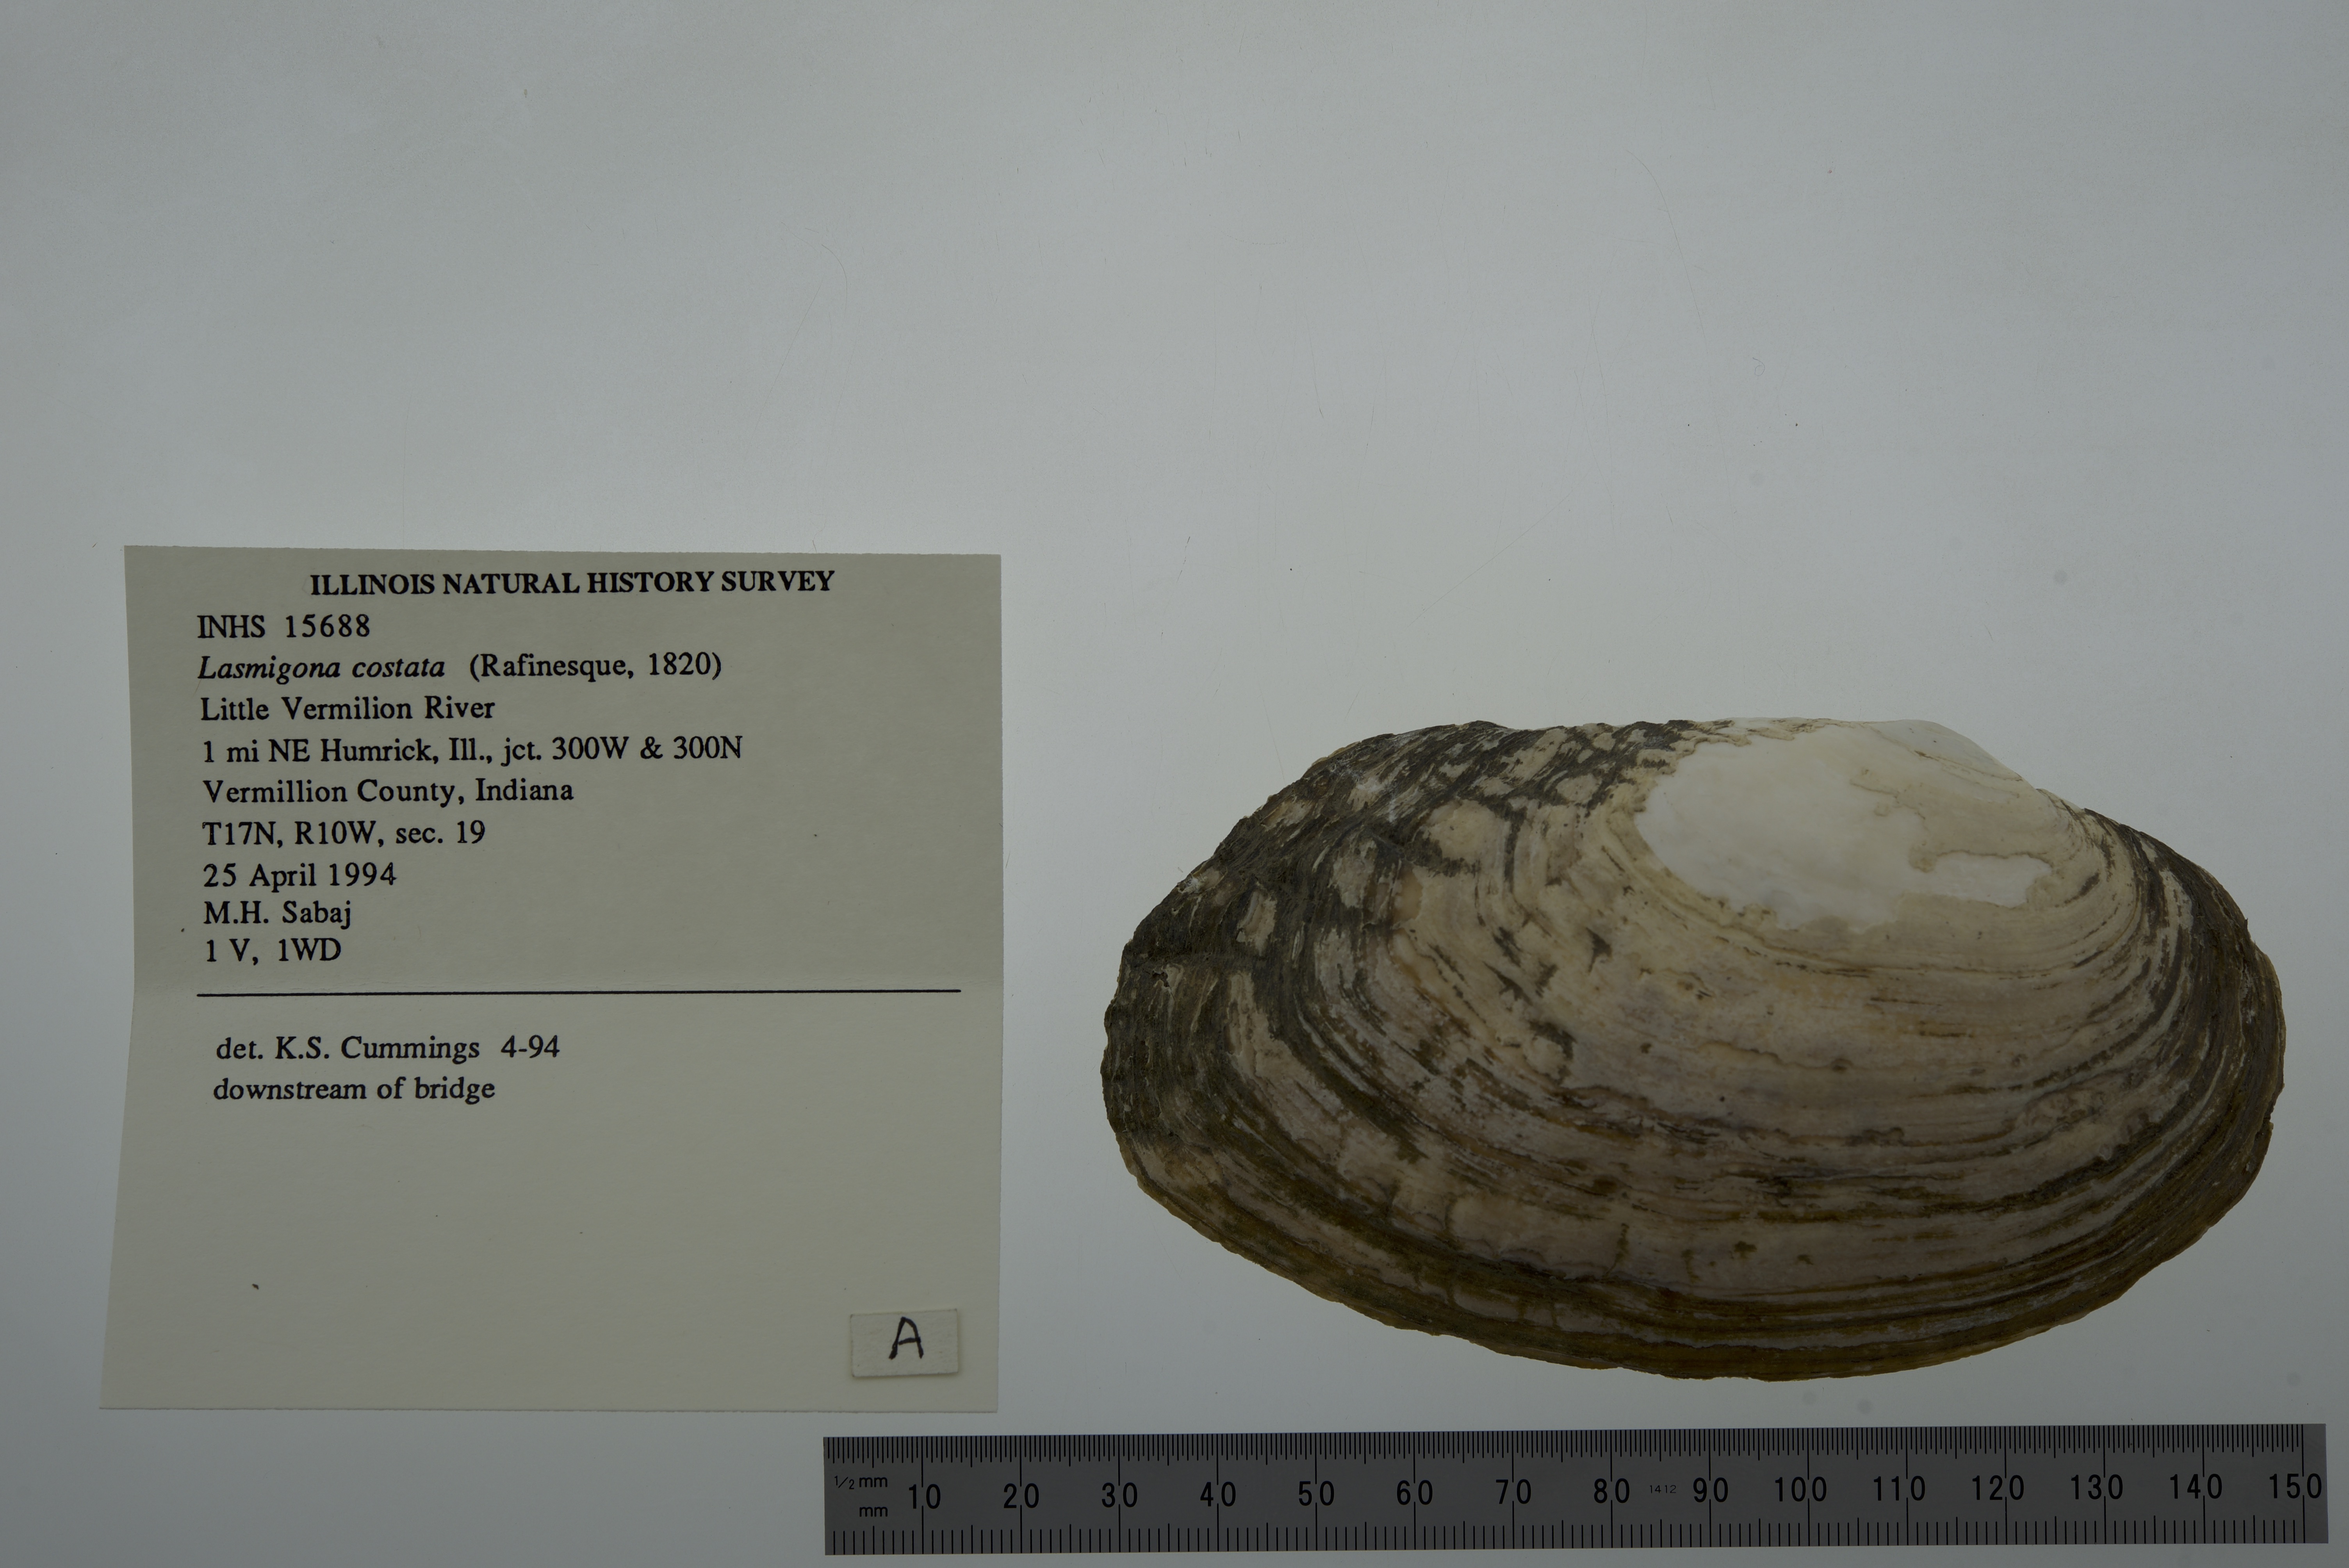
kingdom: Animalia
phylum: Mollusca
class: Bivalvia
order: Unionida
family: Unionidae
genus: Lasmigona
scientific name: Lasmigona costata
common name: Flutedshell
